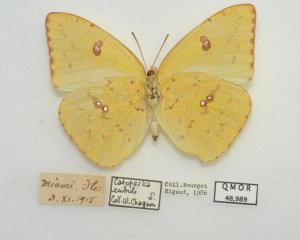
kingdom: Animalia
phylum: Arthropoda
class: Insecta
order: Lepidoptera
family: Pieridae
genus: Phoebis
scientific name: Phoebis sennae
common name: Cloudless Sulphur
